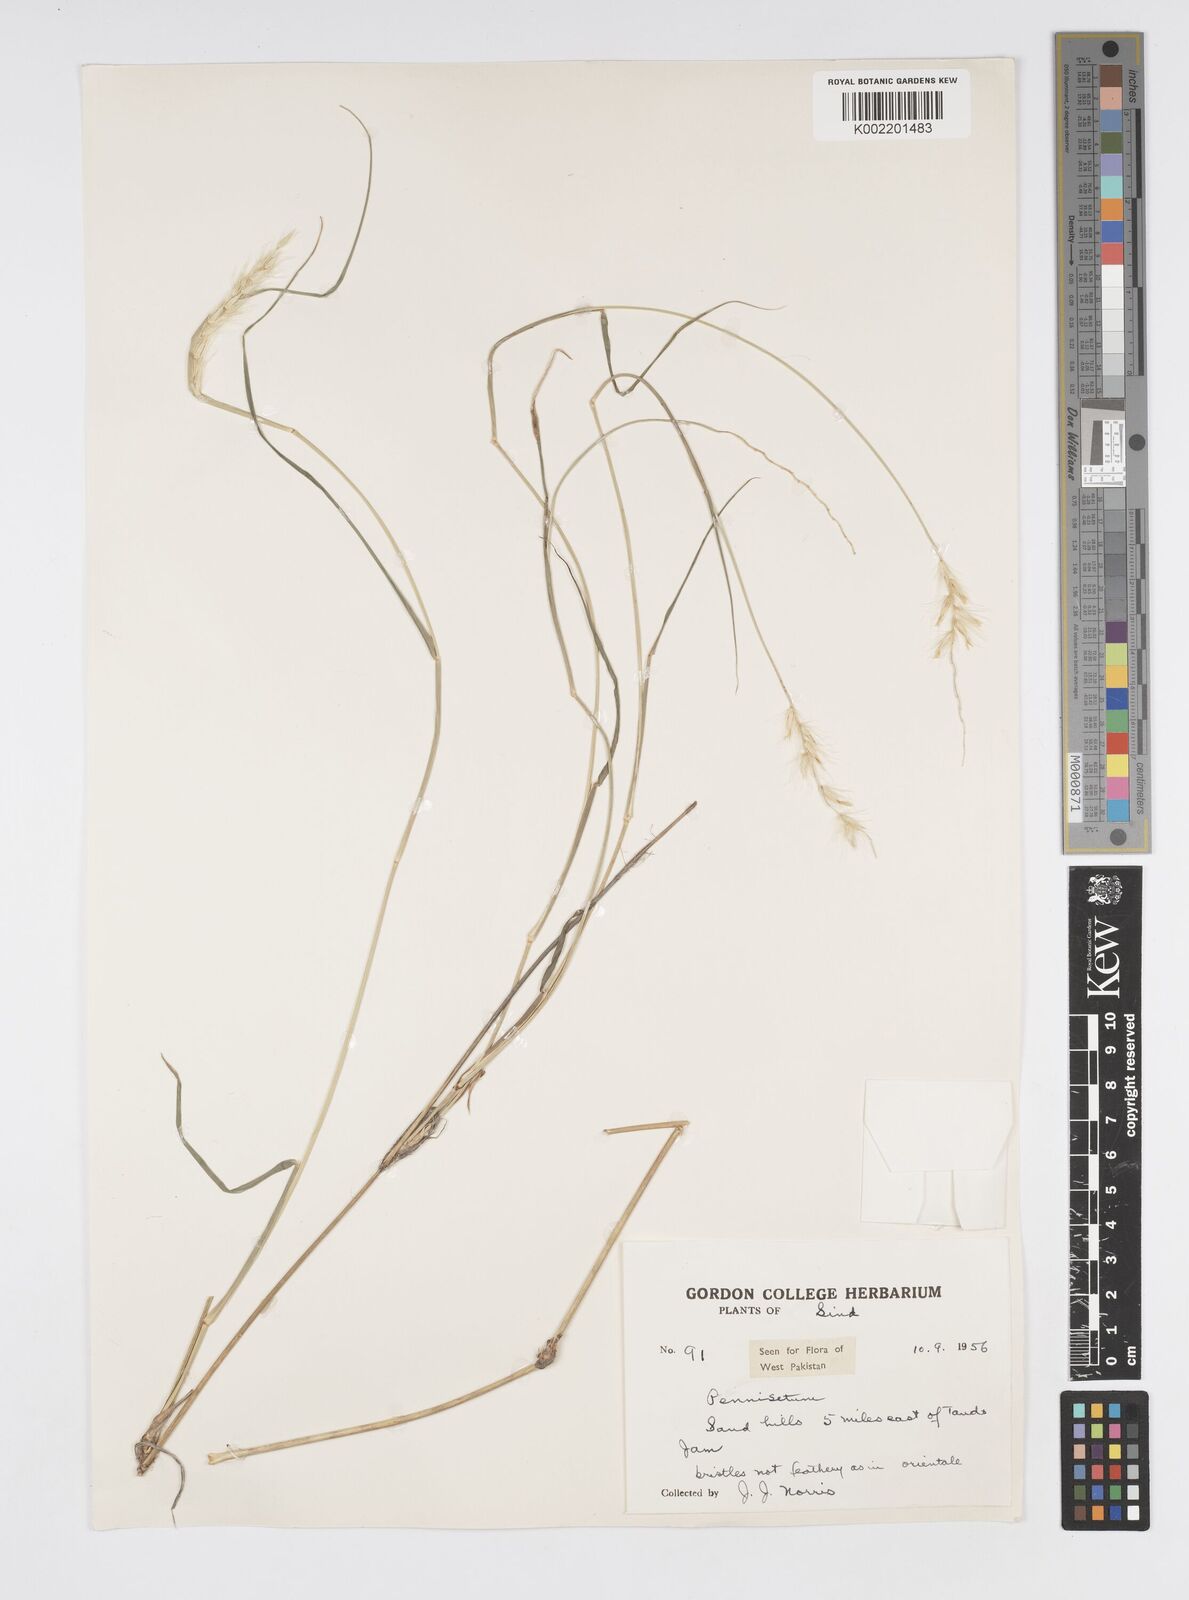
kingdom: Plantae
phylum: Tracheophyta
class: Liliopsida
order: Poales
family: Poaceae
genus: Cenchrus
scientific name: Cenchrus divisus
